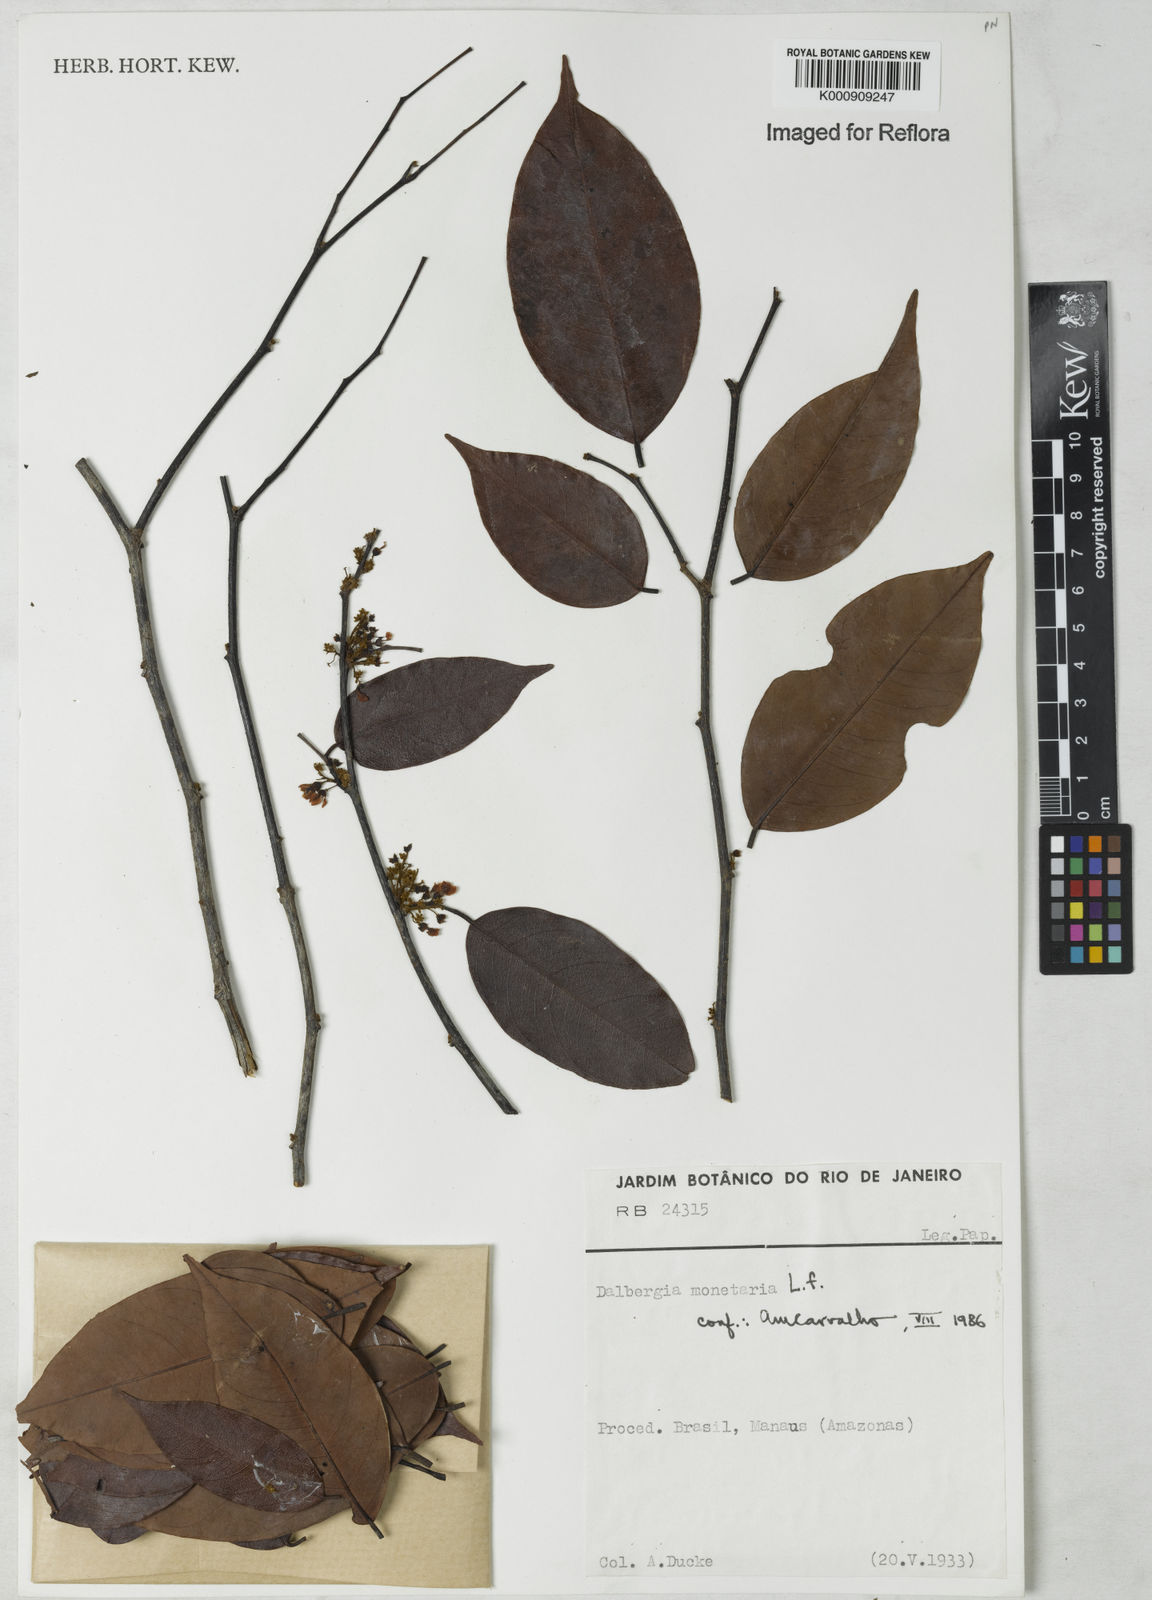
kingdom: Plantae
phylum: Tracheophyta
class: Magnoliopsida
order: Fabales
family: Fabaceae
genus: Dalbergia
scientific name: Dalbergia ovalis
